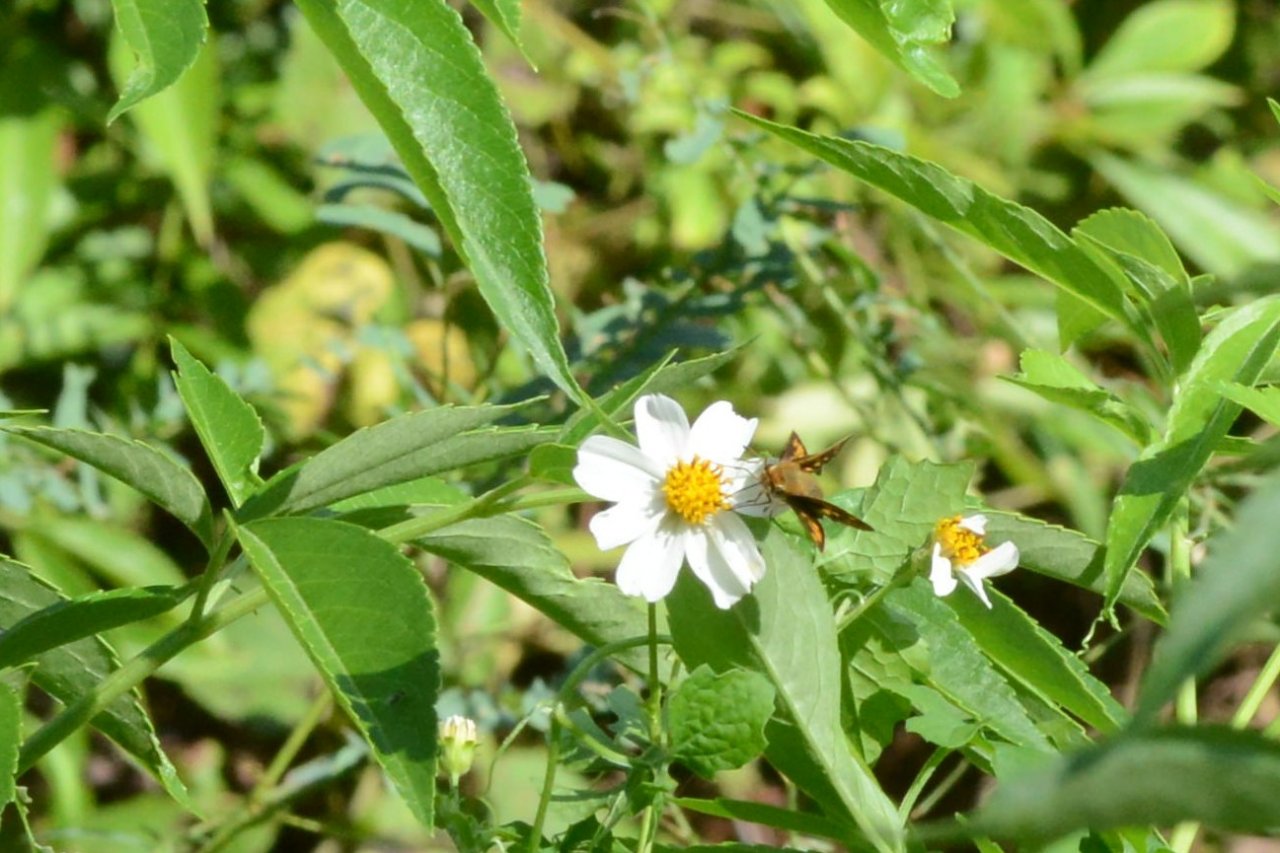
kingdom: Animalia
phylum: Arthropoda
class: Insecta
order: Lepidoptera
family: Hesperiidae
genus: Hylephila
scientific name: Hylephila phyleus
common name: Fiery Skipper
